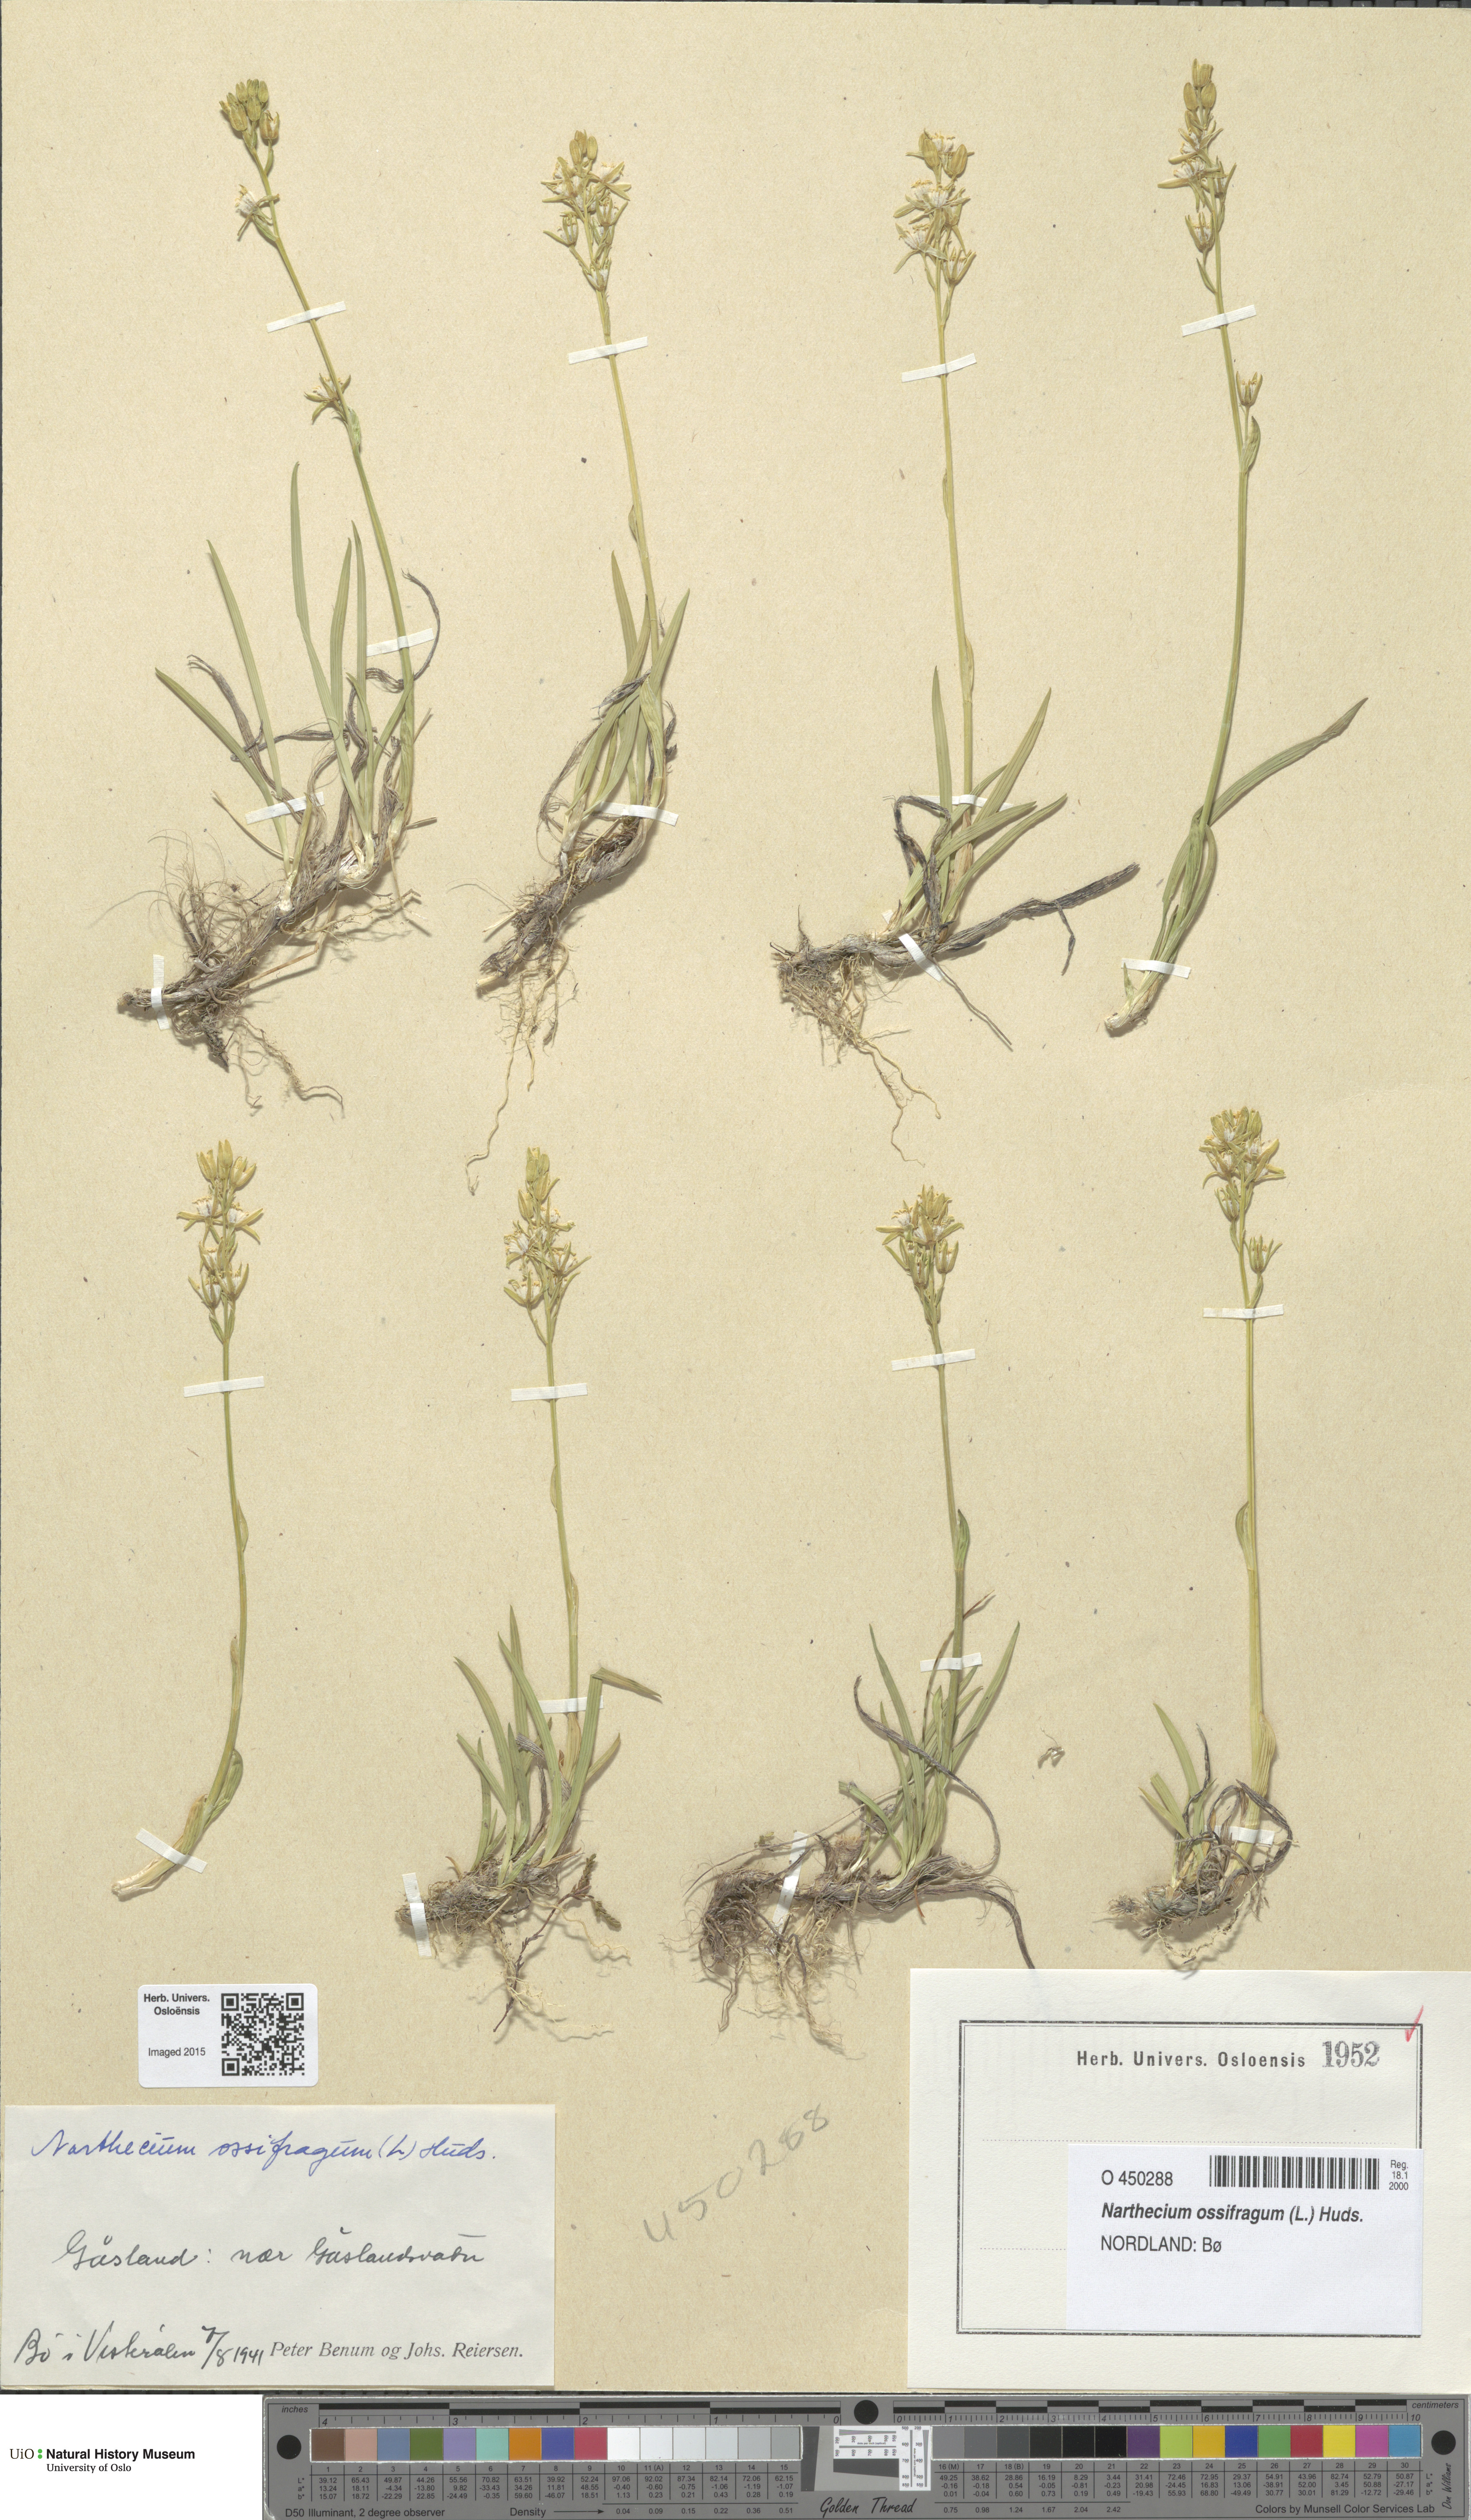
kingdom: Plantae
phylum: Tracheophyta
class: Liliopsida
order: Dioscoreales
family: Nartheciaceae
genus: Narthecium
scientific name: Narthecium ossifragum
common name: Bog asphodel
